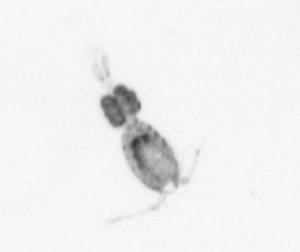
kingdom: Animalia
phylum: Arthropoda
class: Copepoda
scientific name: Copepoda
